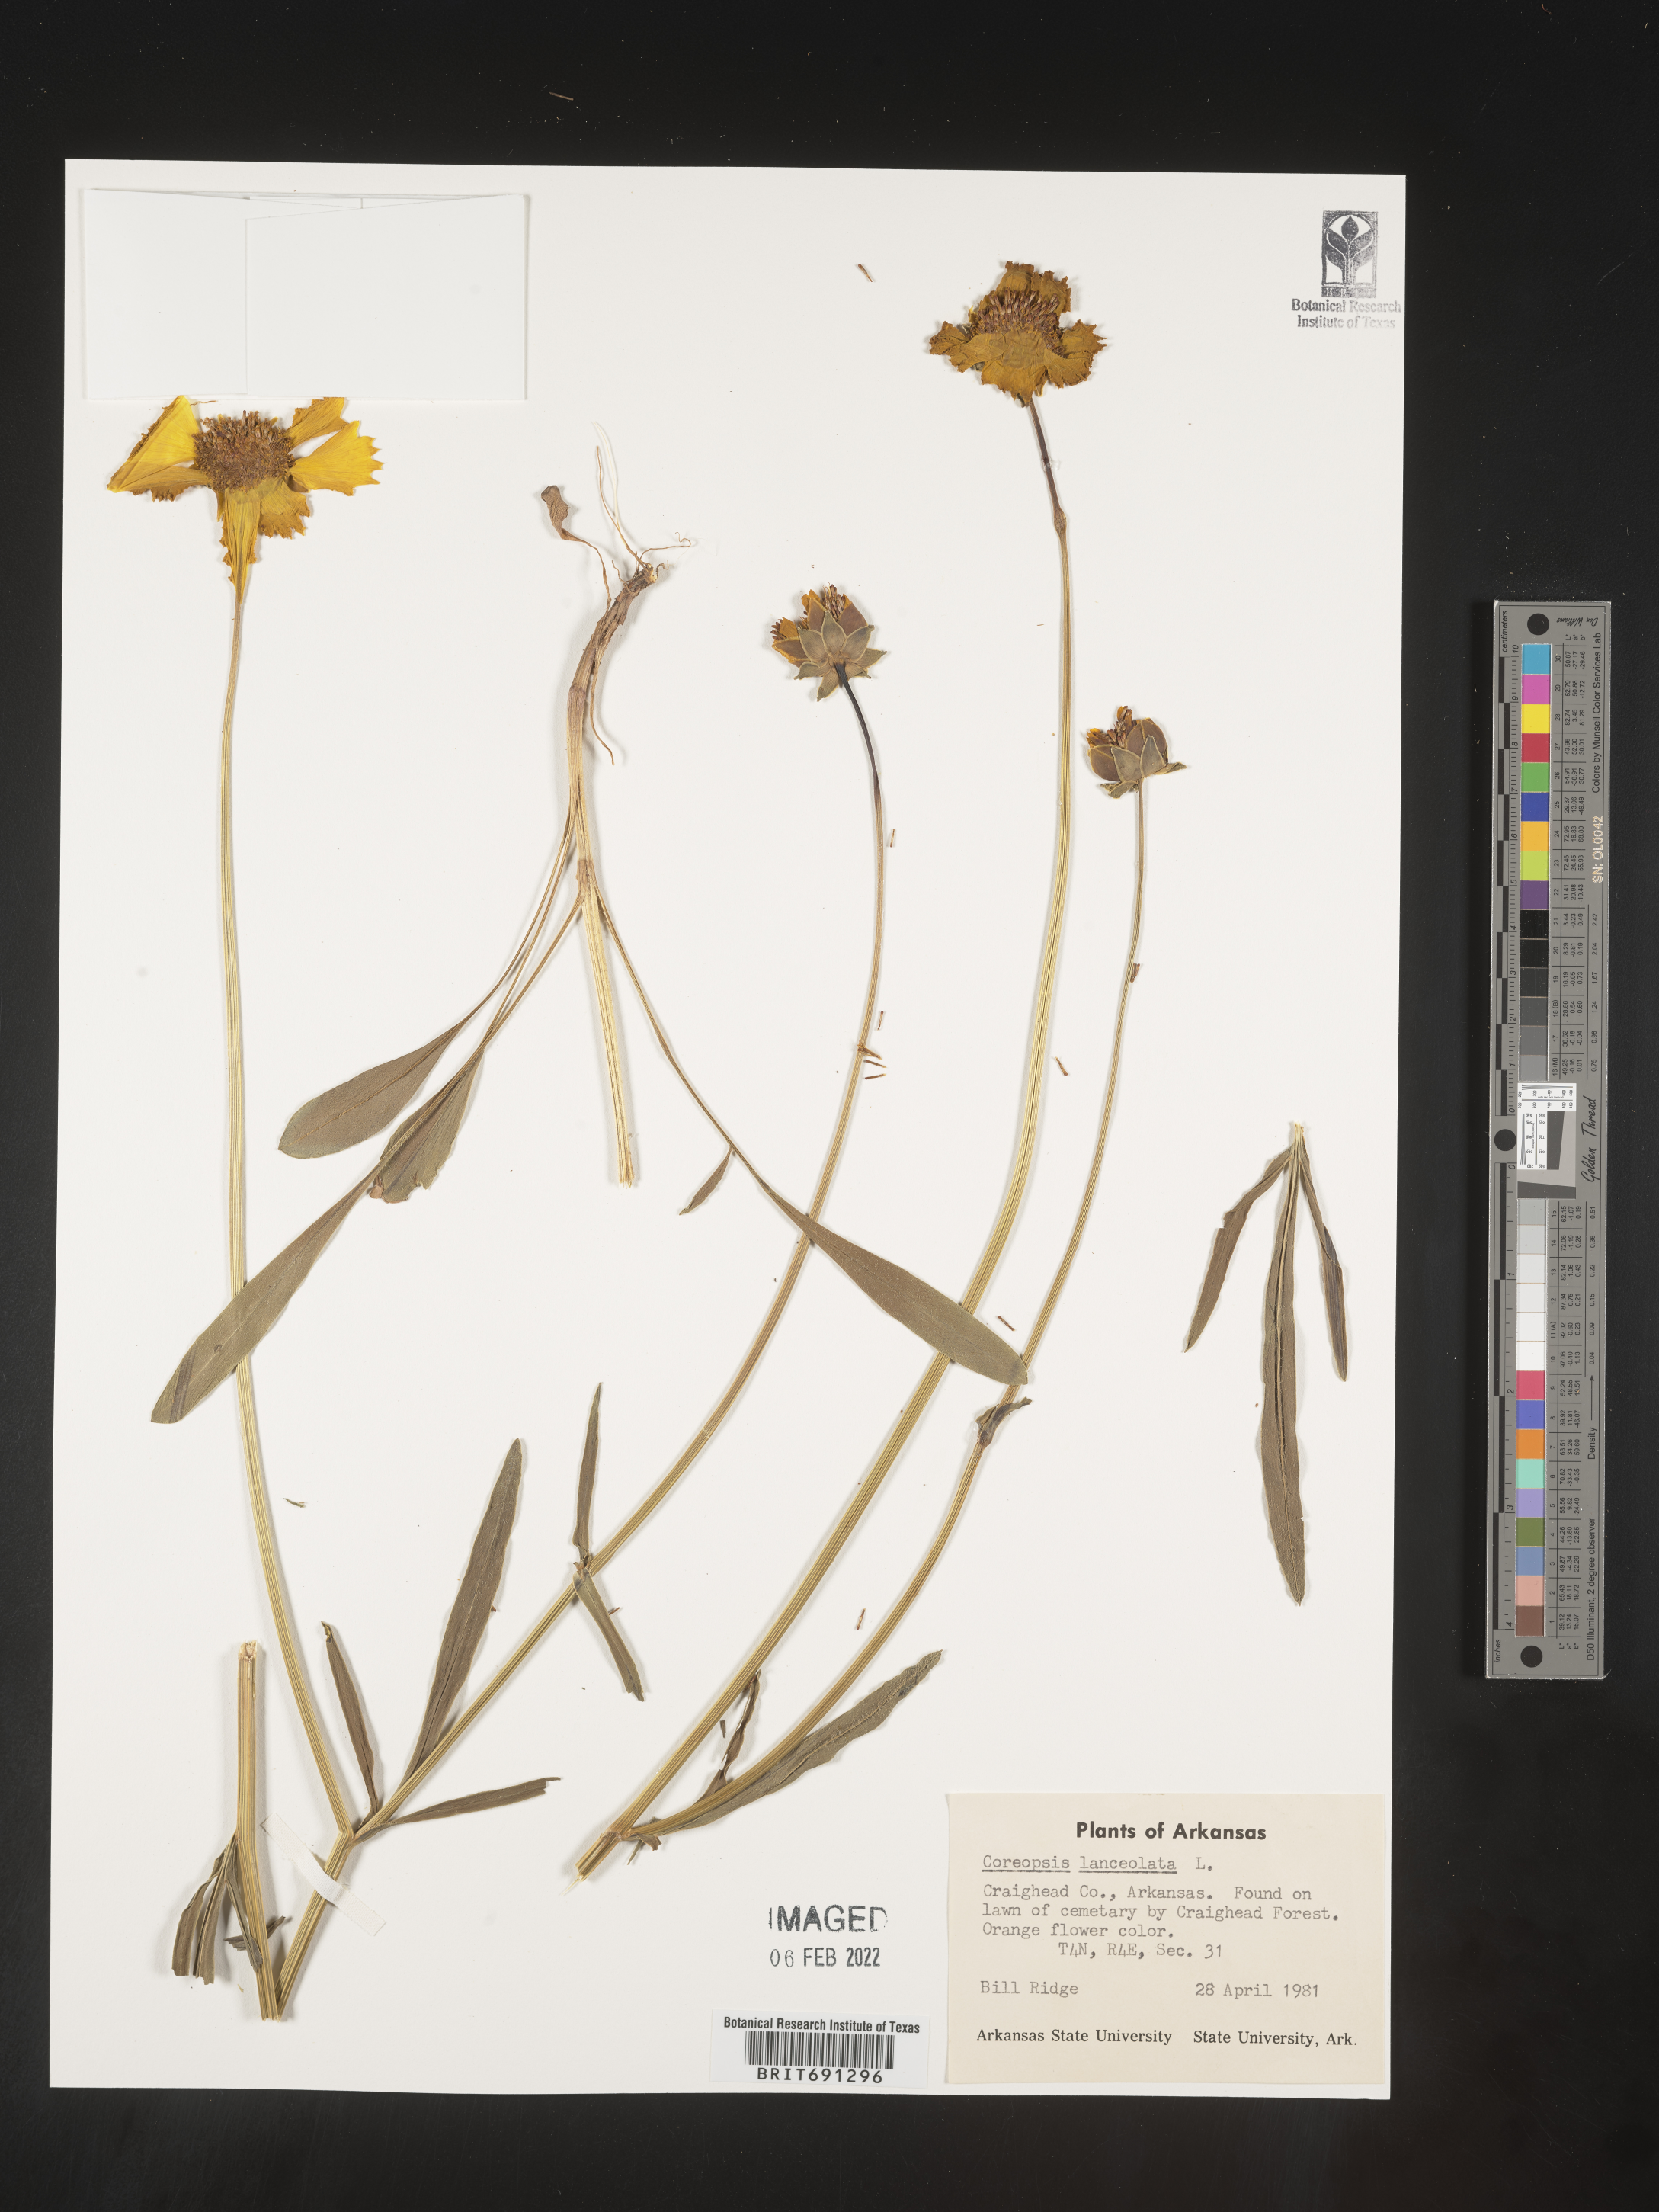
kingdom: Plantae
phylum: Tracheophyta
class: Magnoliopsida
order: Asterales
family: Asteraceae
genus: Coreopsis
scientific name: Coreopsis lanceolata
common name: Garden coreopsis
